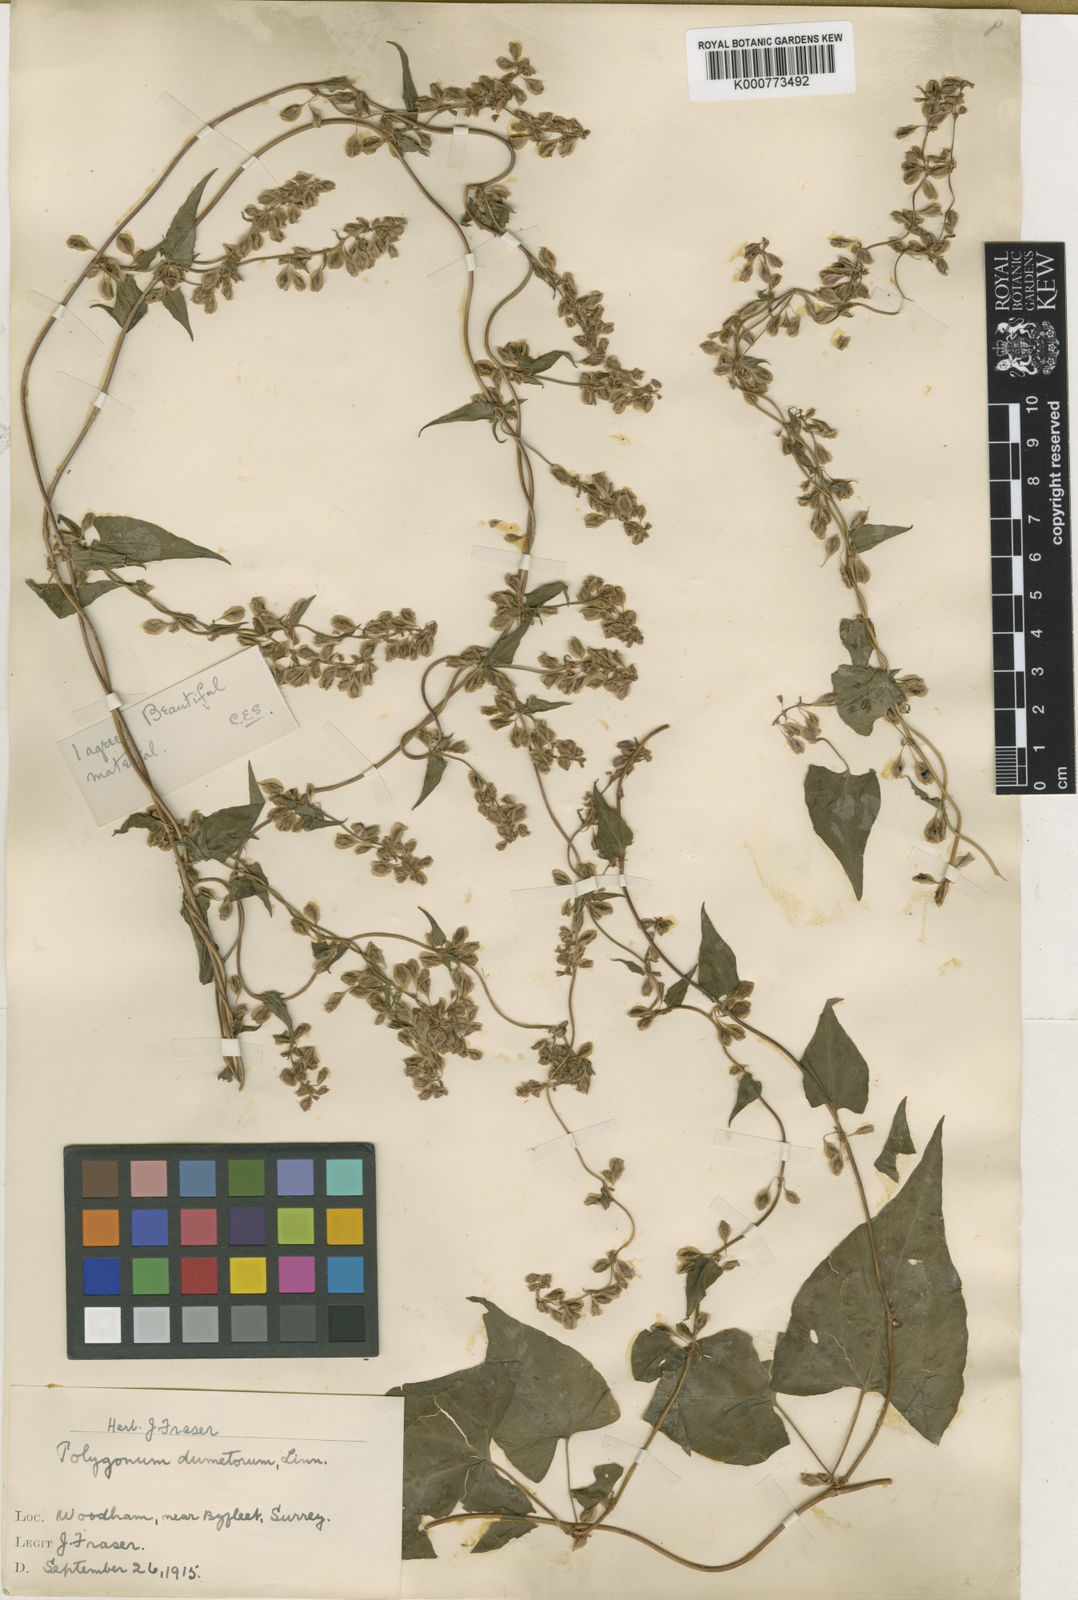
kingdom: Plantae
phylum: Tracheophyta
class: Magnoliopsida
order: Caryophyllales
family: Polygonaceae
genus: Fallopia
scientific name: Fallopia dumetorum
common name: Copse-bindweed
